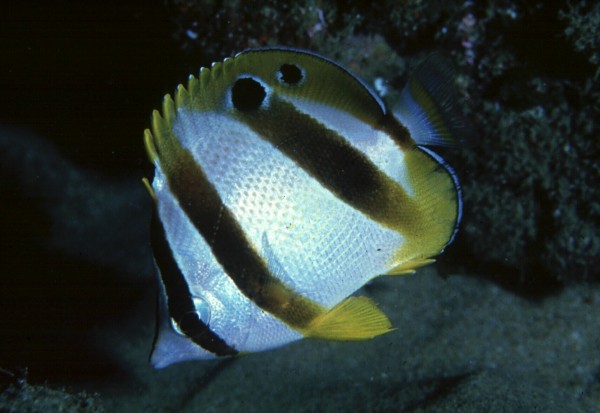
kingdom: Animalia
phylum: Chordata
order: Perciformes
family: Chaetodontidae
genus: Chaetodon
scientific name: Chaetodon marleyi
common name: Doubledash butterflyfish
